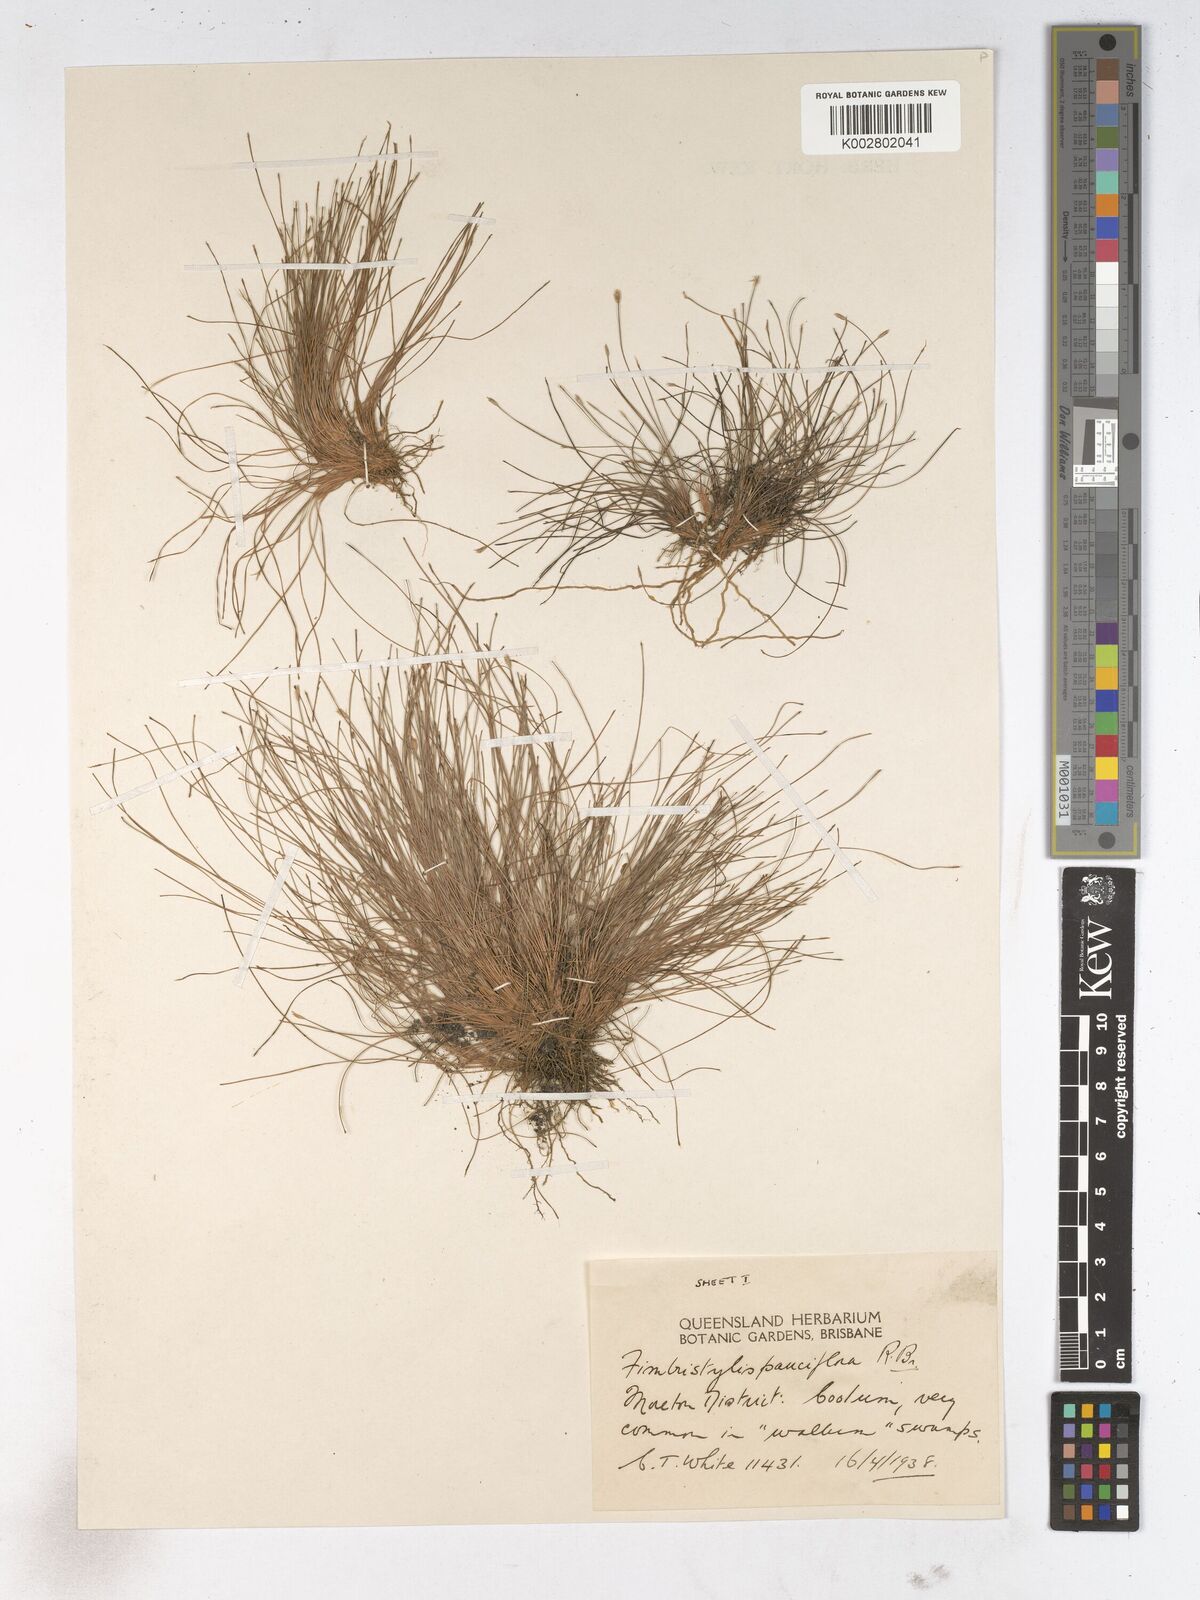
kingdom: Plantae
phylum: Tracheophyta
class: Liliopsida
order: Poales
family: Cyperaceae
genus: Fimbristylis
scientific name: Fimbristylis pauciflora
